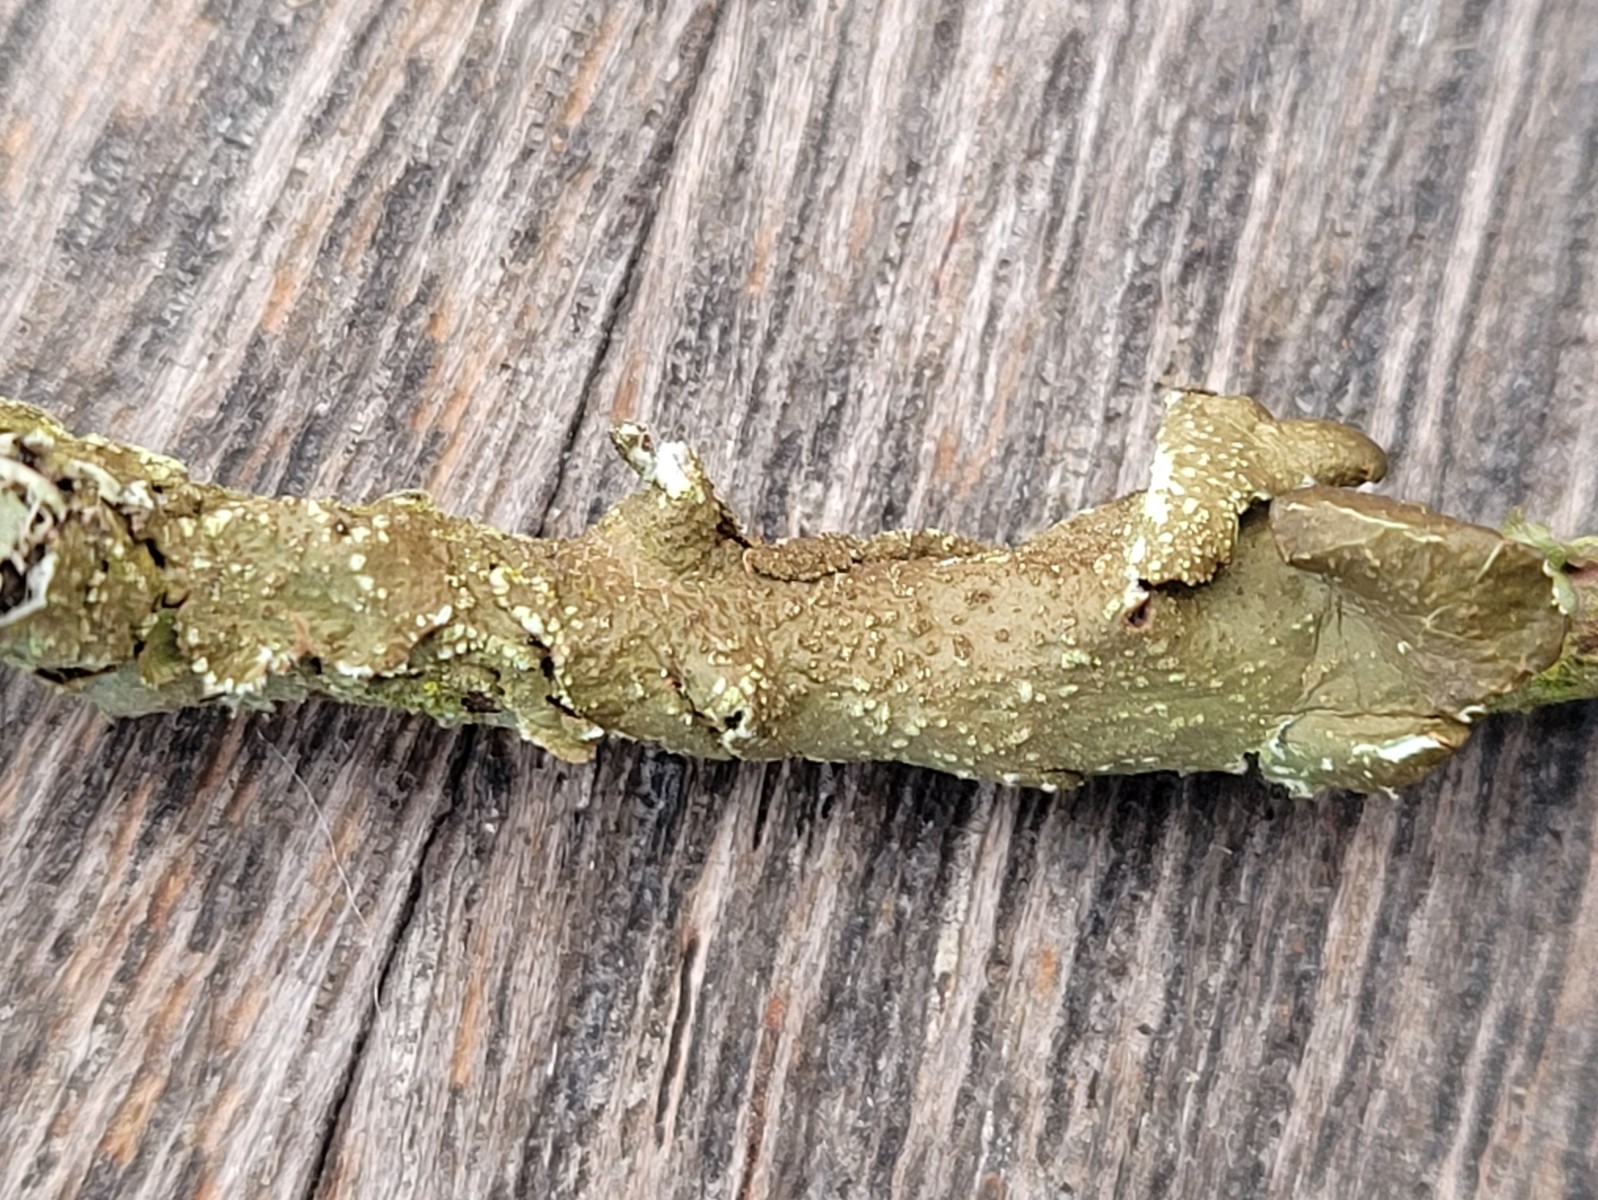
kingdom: Fungi
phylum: Ascomycota
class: Lecanoromycetes
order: Lecanorales
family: Parmeliaceae
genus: Melanelixia
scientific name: Melanelixia subaurifera
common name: guldpudret skållav
